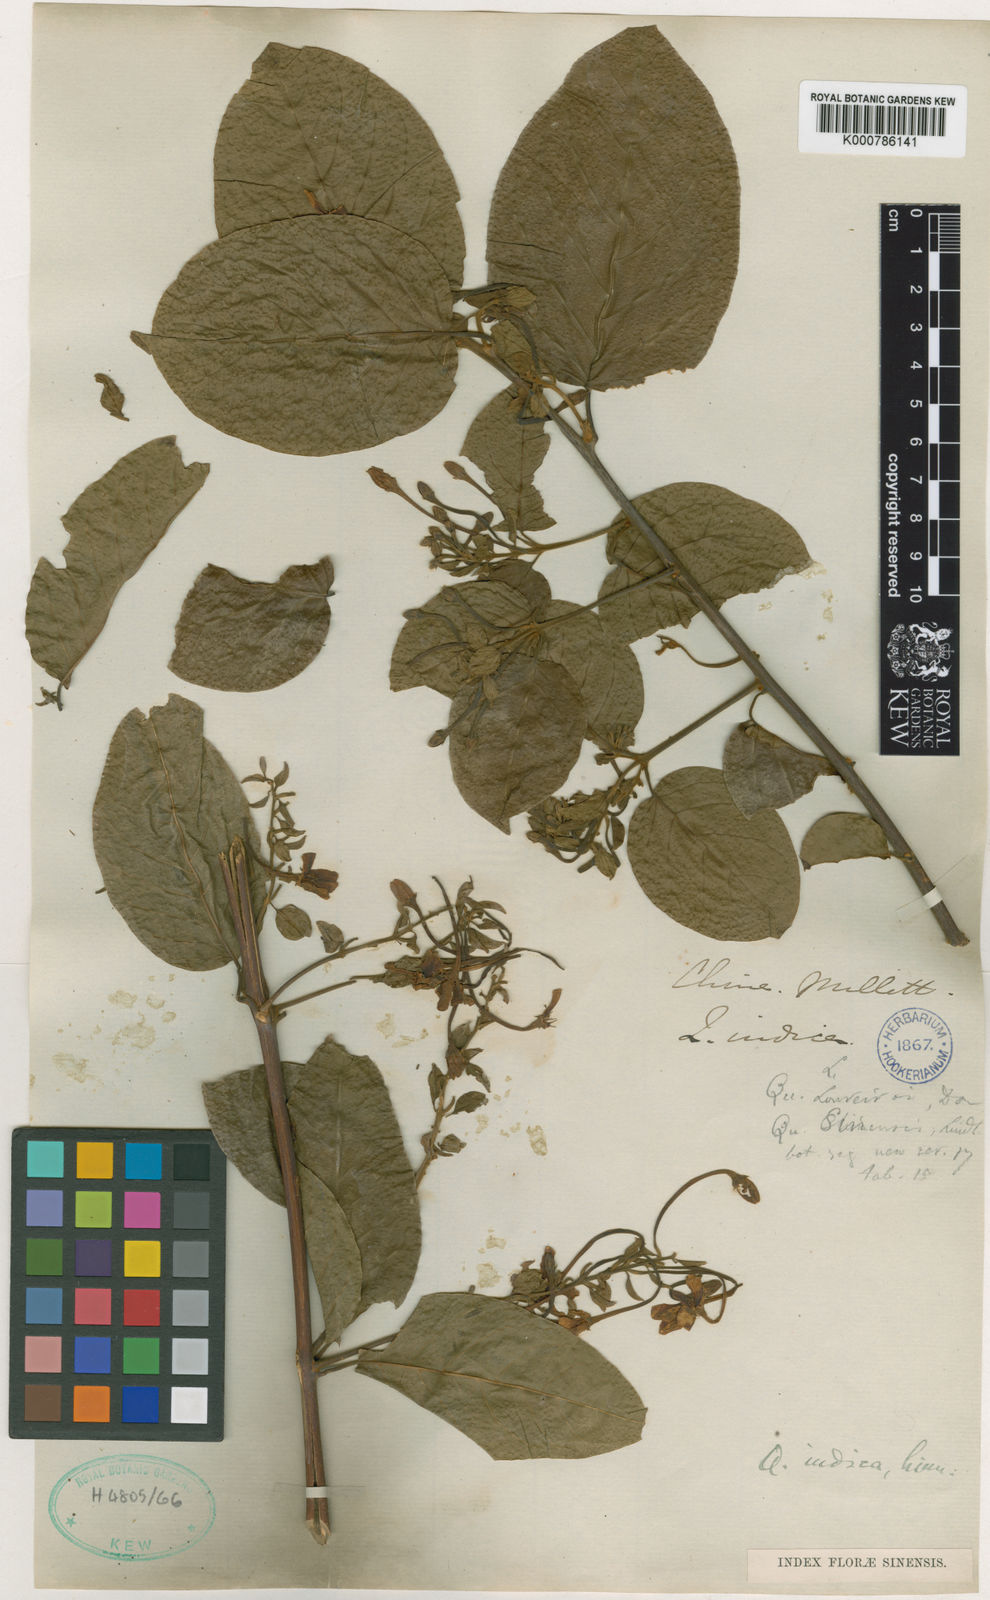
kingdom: Plantae
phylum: Tracheophyta
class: Magnoliopsida
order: Myrtales
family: Combretaceae
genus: Combretum
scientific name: Combretum indicum
